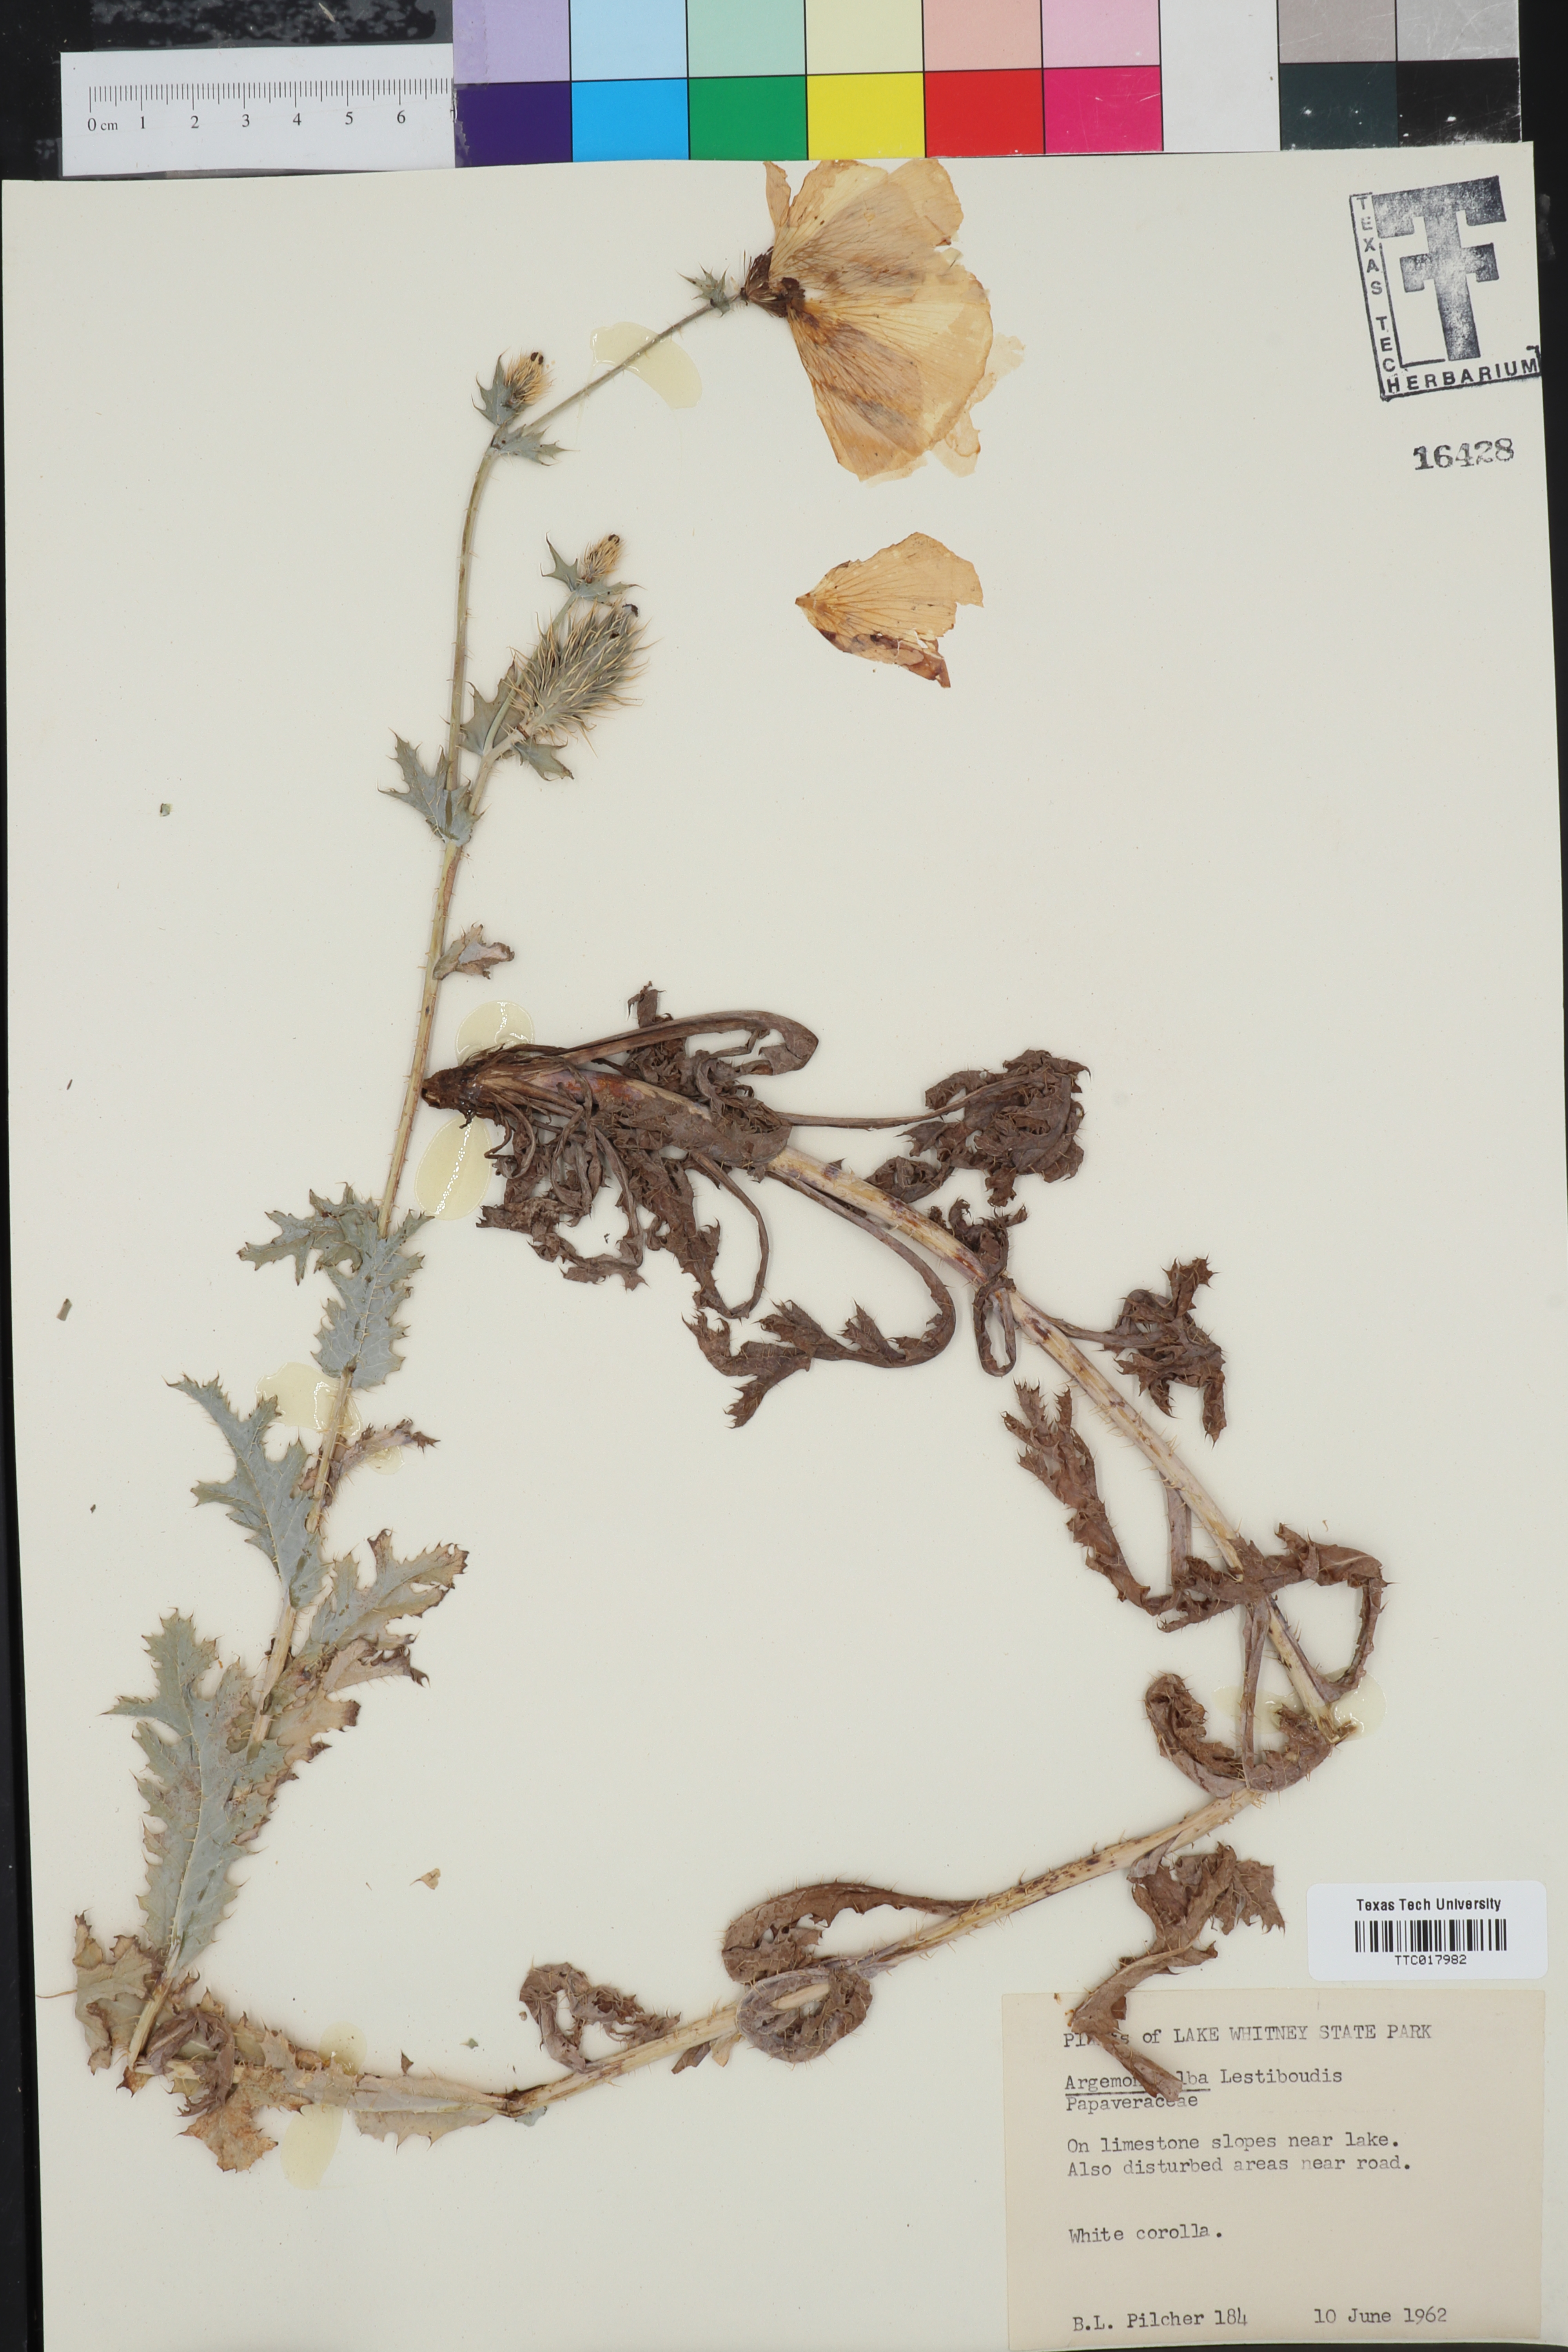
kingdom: Plantae
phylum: Tracheophyta
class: Magnoliopsida
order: Ranunculales
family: Papaveraceae
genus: Argemone
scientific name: Argemone albiflora
